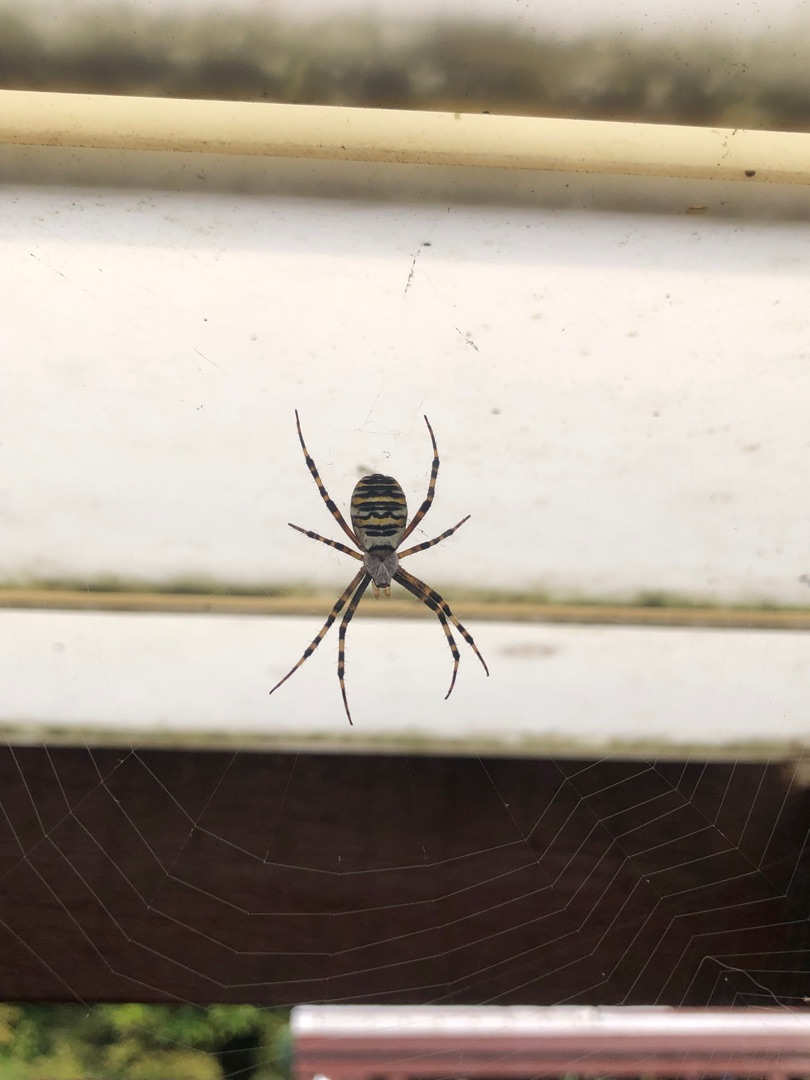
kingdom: Animalia
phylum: Arthropoda
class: Arachnida
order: Araneae
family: Araneidae
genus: Argiope
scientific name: Argiope bruennichi
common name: Hvepseedderkop
